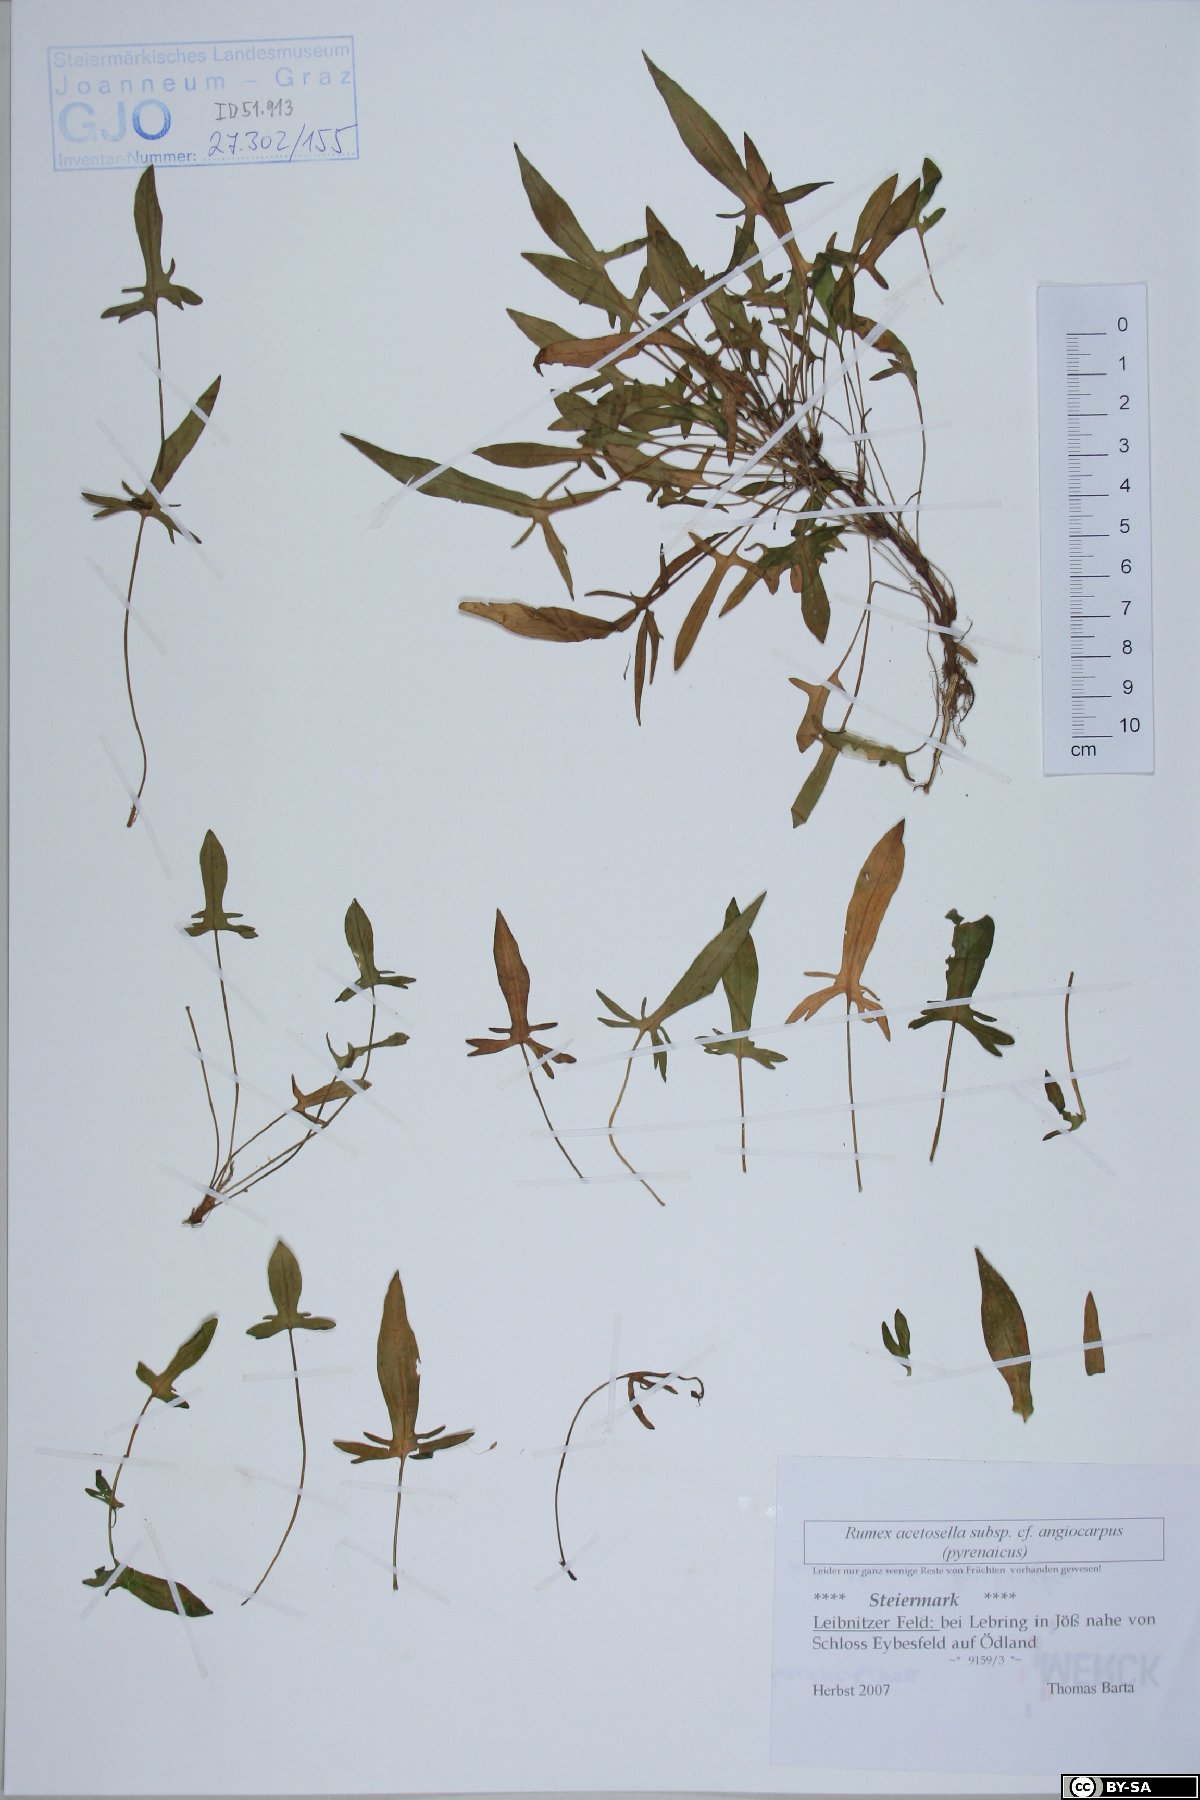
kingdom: Plantae
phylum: Tracheophyta
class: Magnoliopsida
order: Caryophyllales
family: Polygonaceae
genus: Rumex
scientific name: Rumex acetosella
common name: Common sheep sorrel
